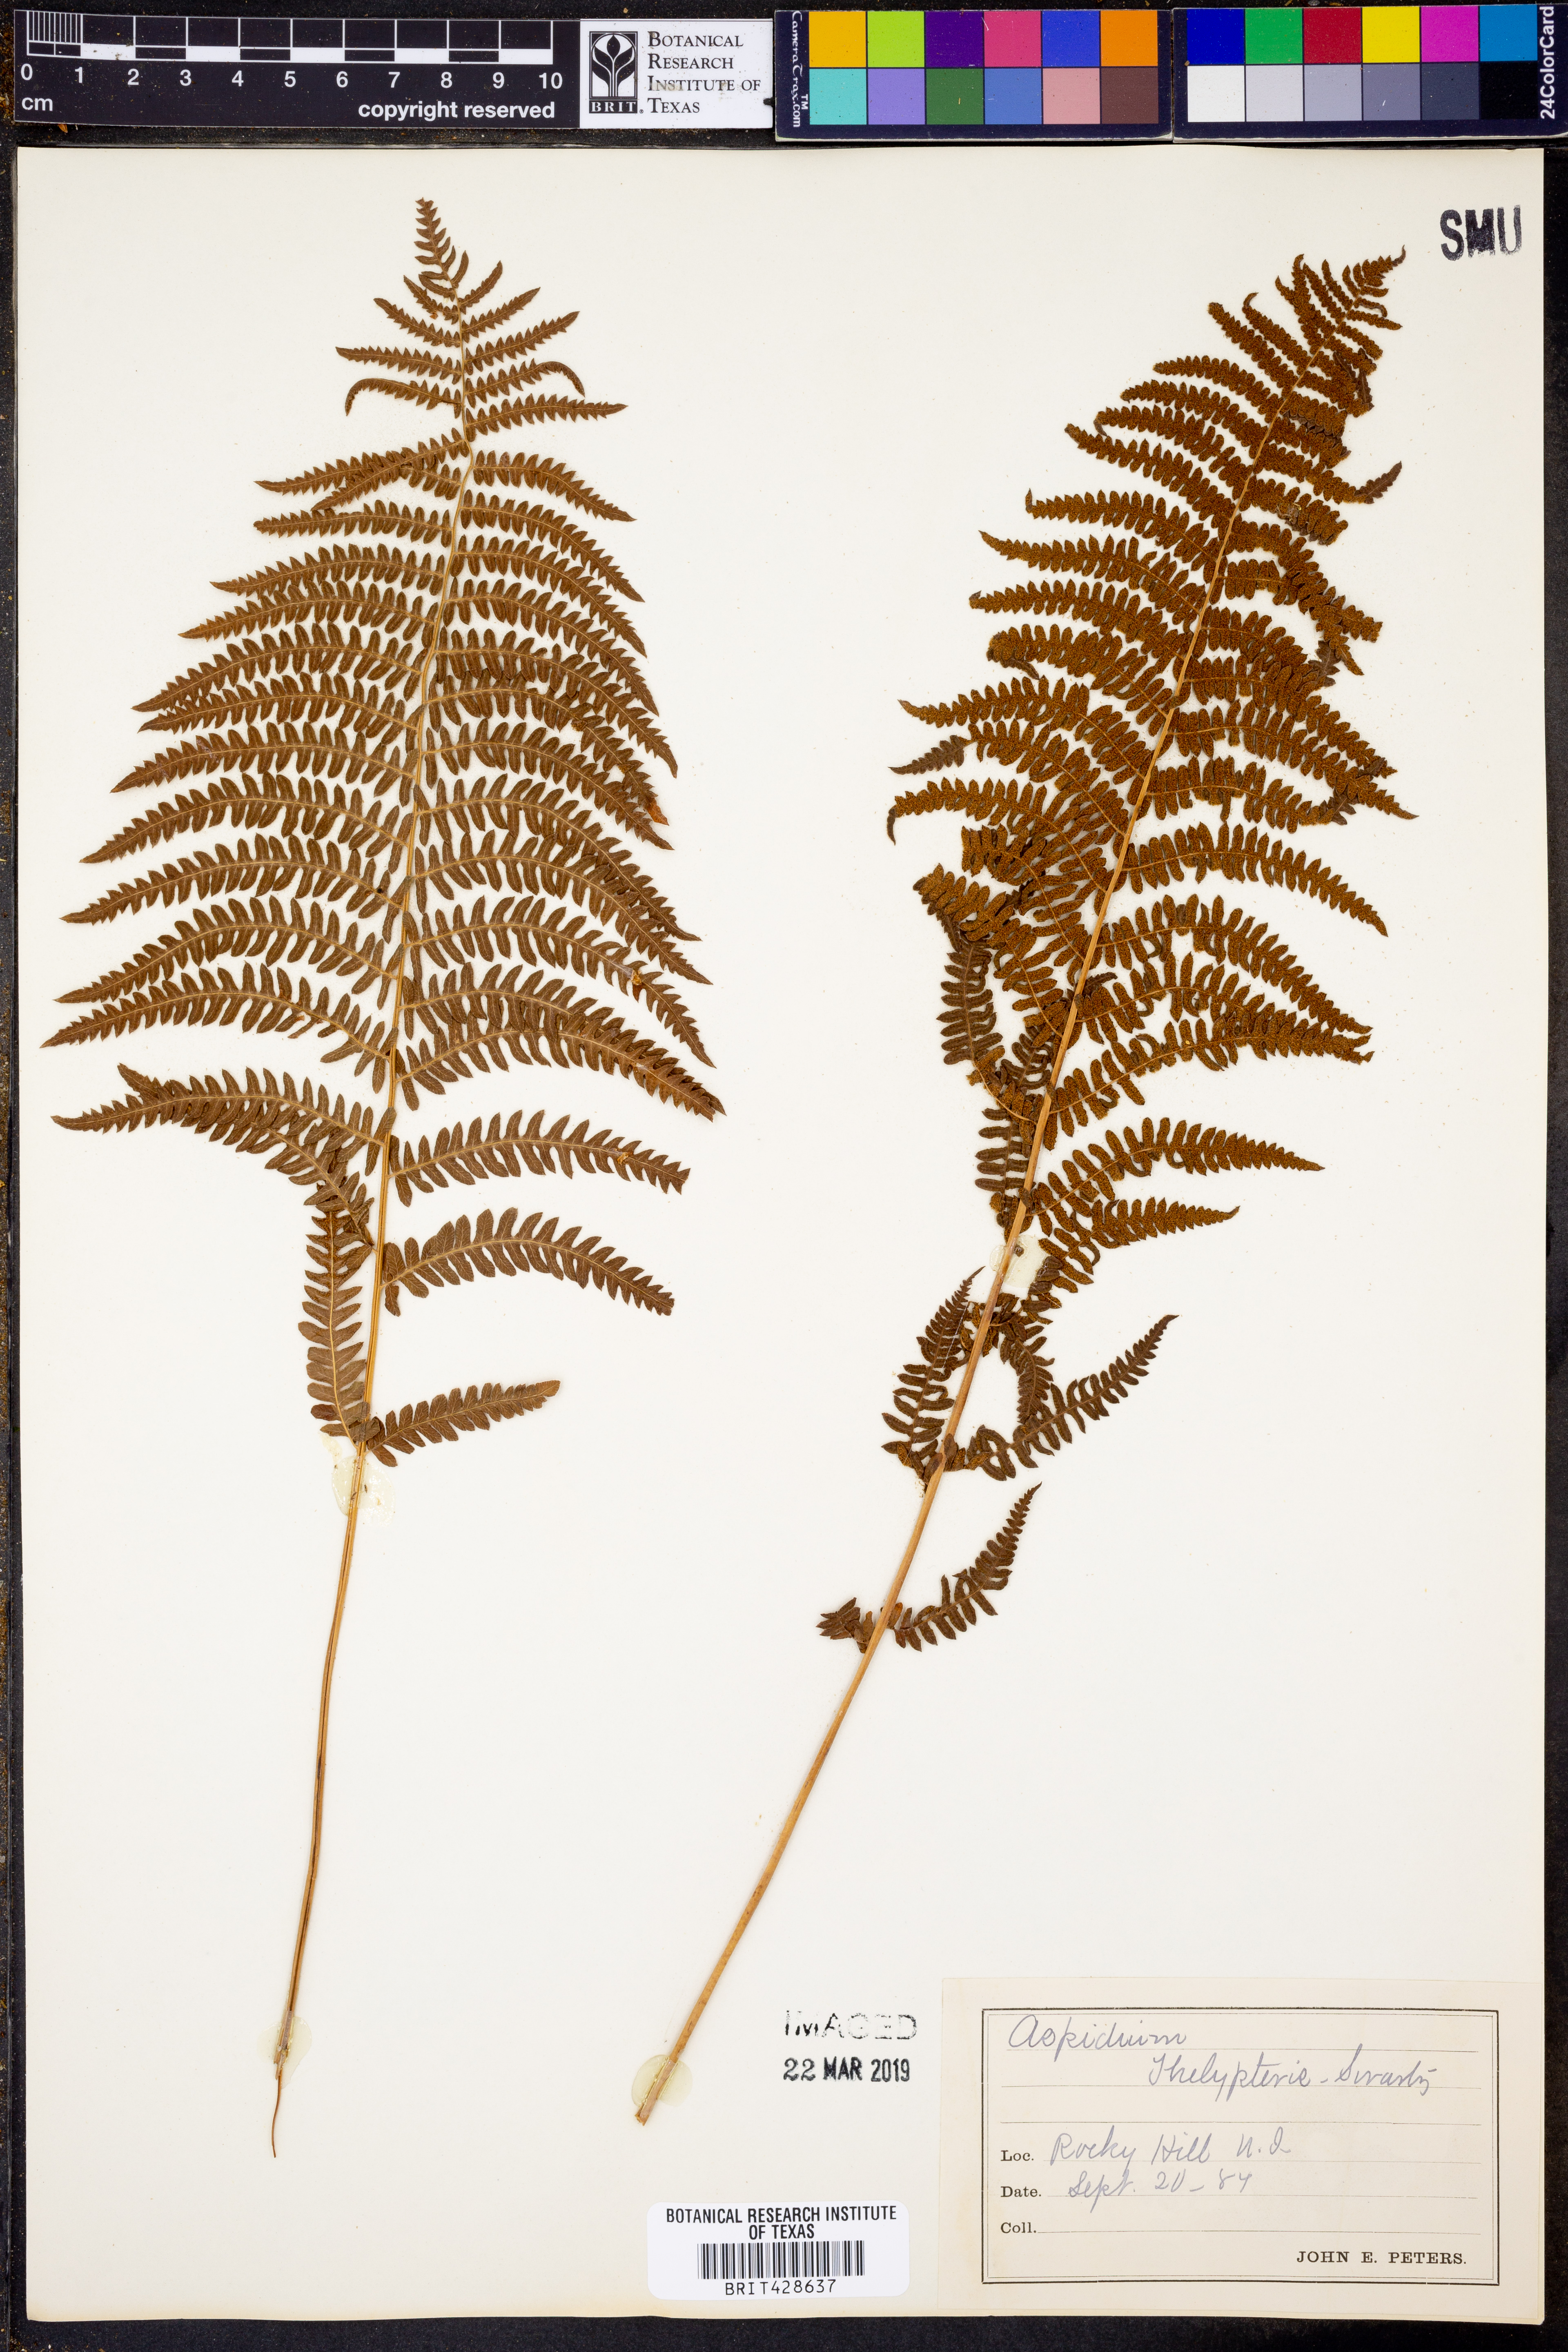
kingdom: Plantae
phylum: Tracheophyta
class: Polypodiopsida
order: Polypodiales
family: Thelypteridaceae
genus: Thelypteris
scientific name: Thelypteris palustris
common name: Marsh fern
